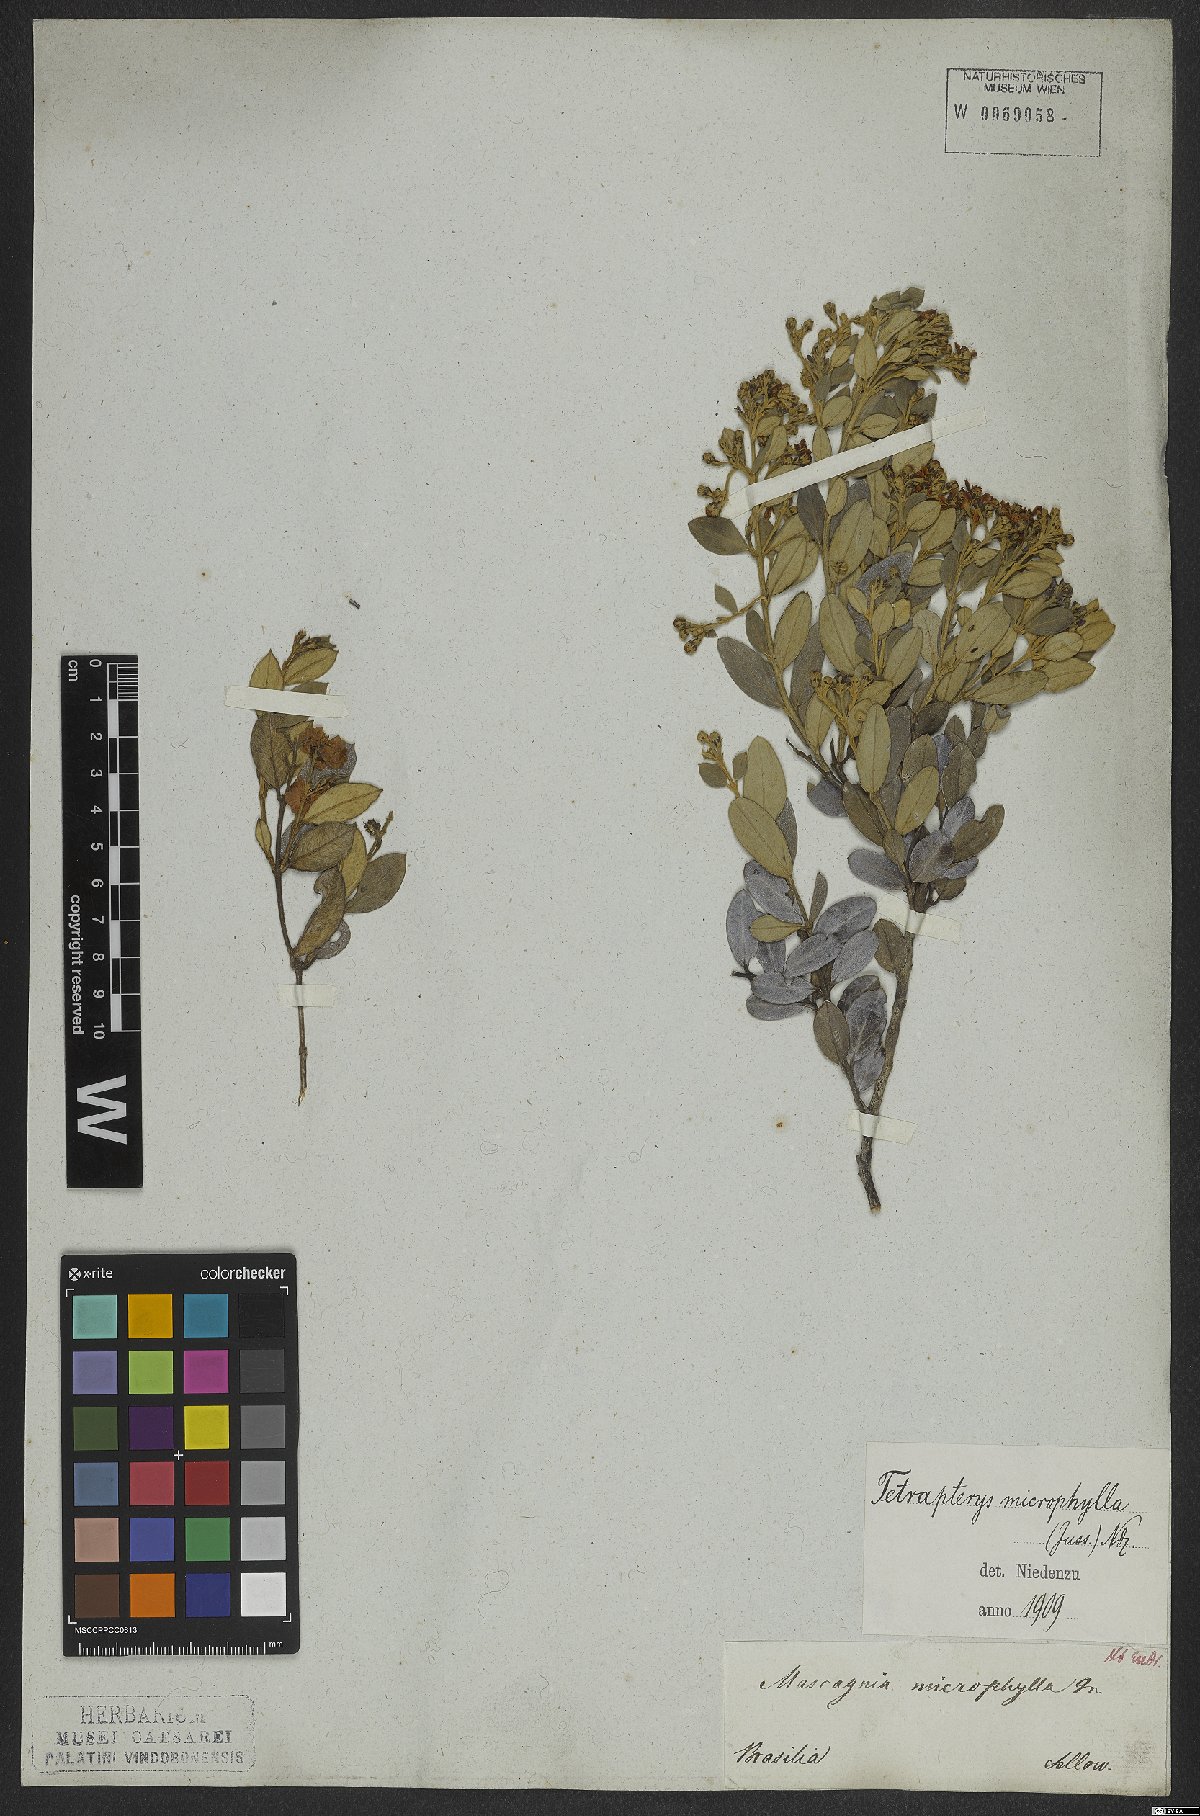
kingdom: Plantae
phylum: Tracheophyta
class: Magnoliopsida
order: Malpighiales
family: Malpighiaceae
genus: Glicophyllum
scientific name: Glicophyllum microphyllum
